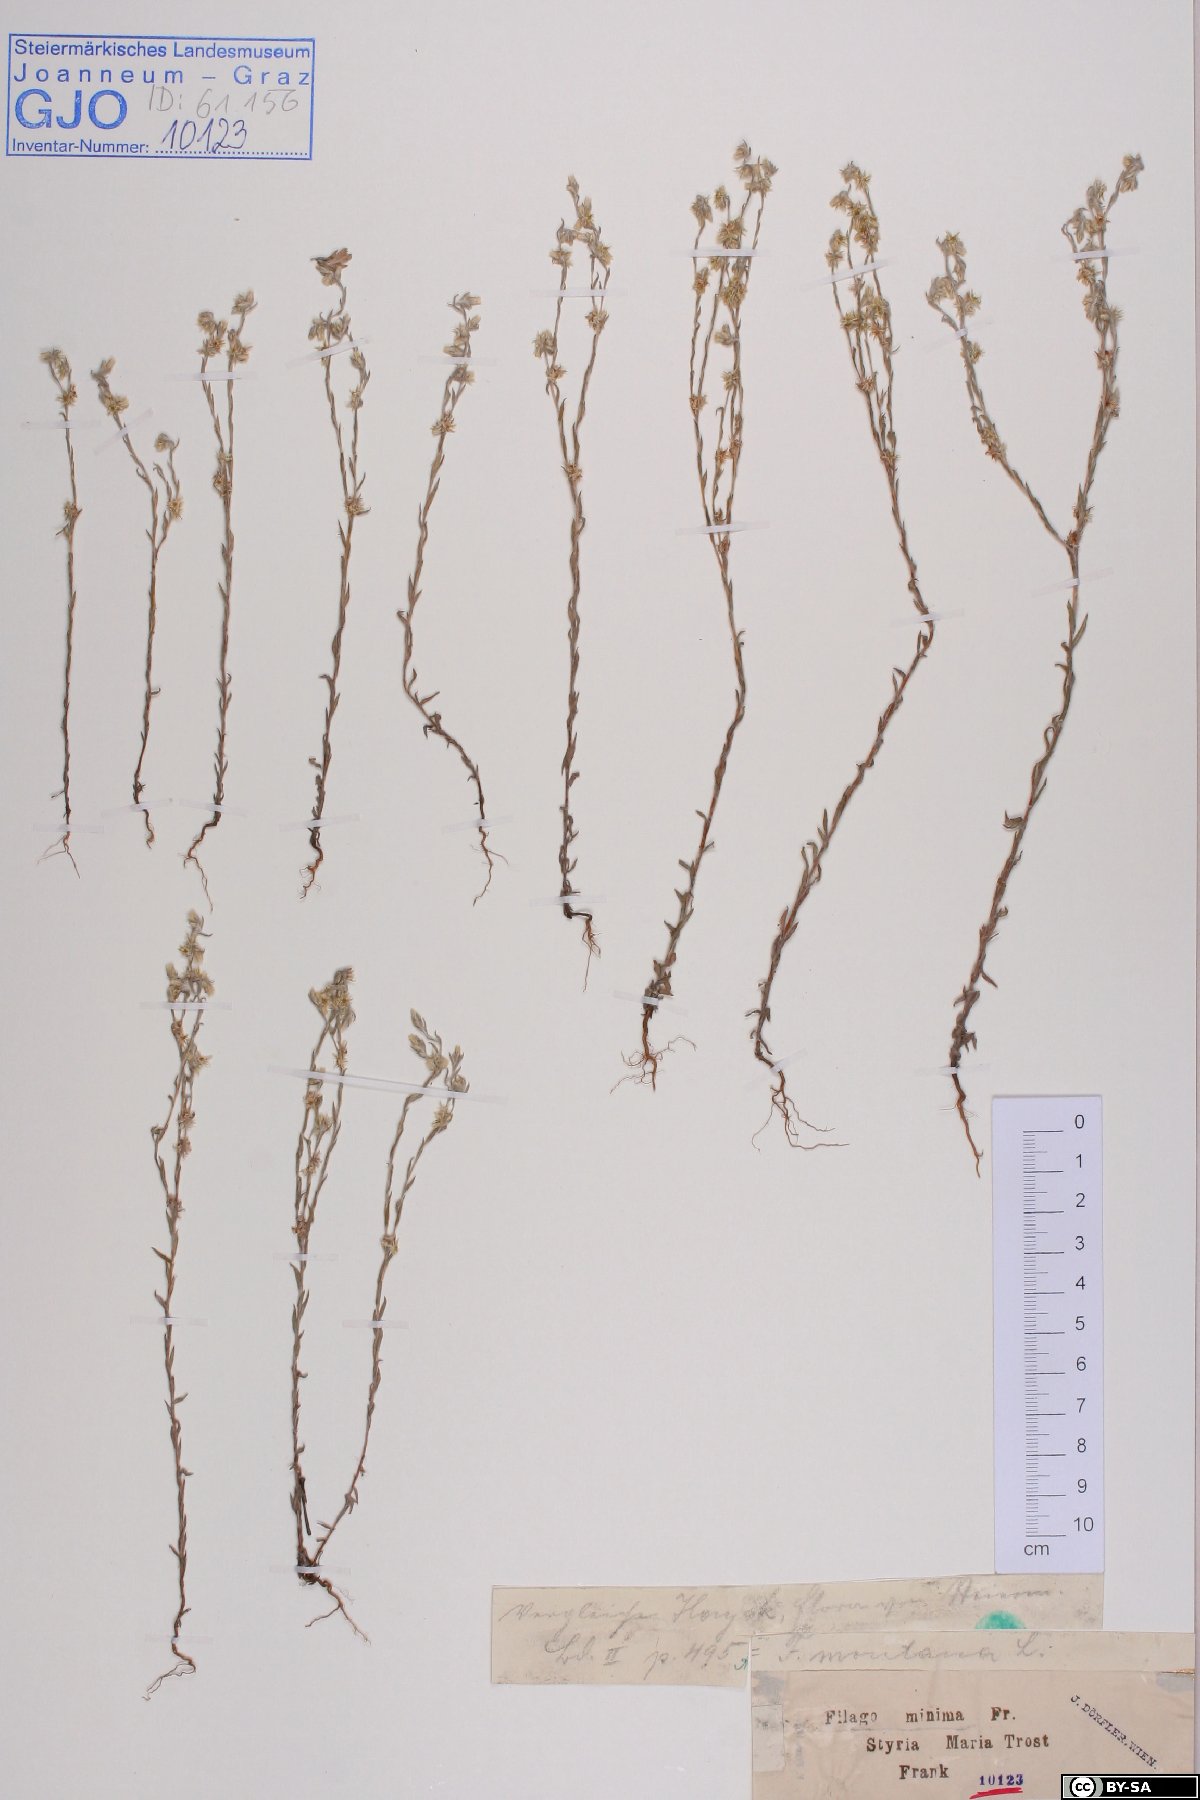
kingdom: Plantae
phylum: Tracheophyta
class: Magnoliopsida
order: Asterales
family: Asteraceae
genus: Logfia
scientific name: Logfia minima
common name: Little cottonrose
